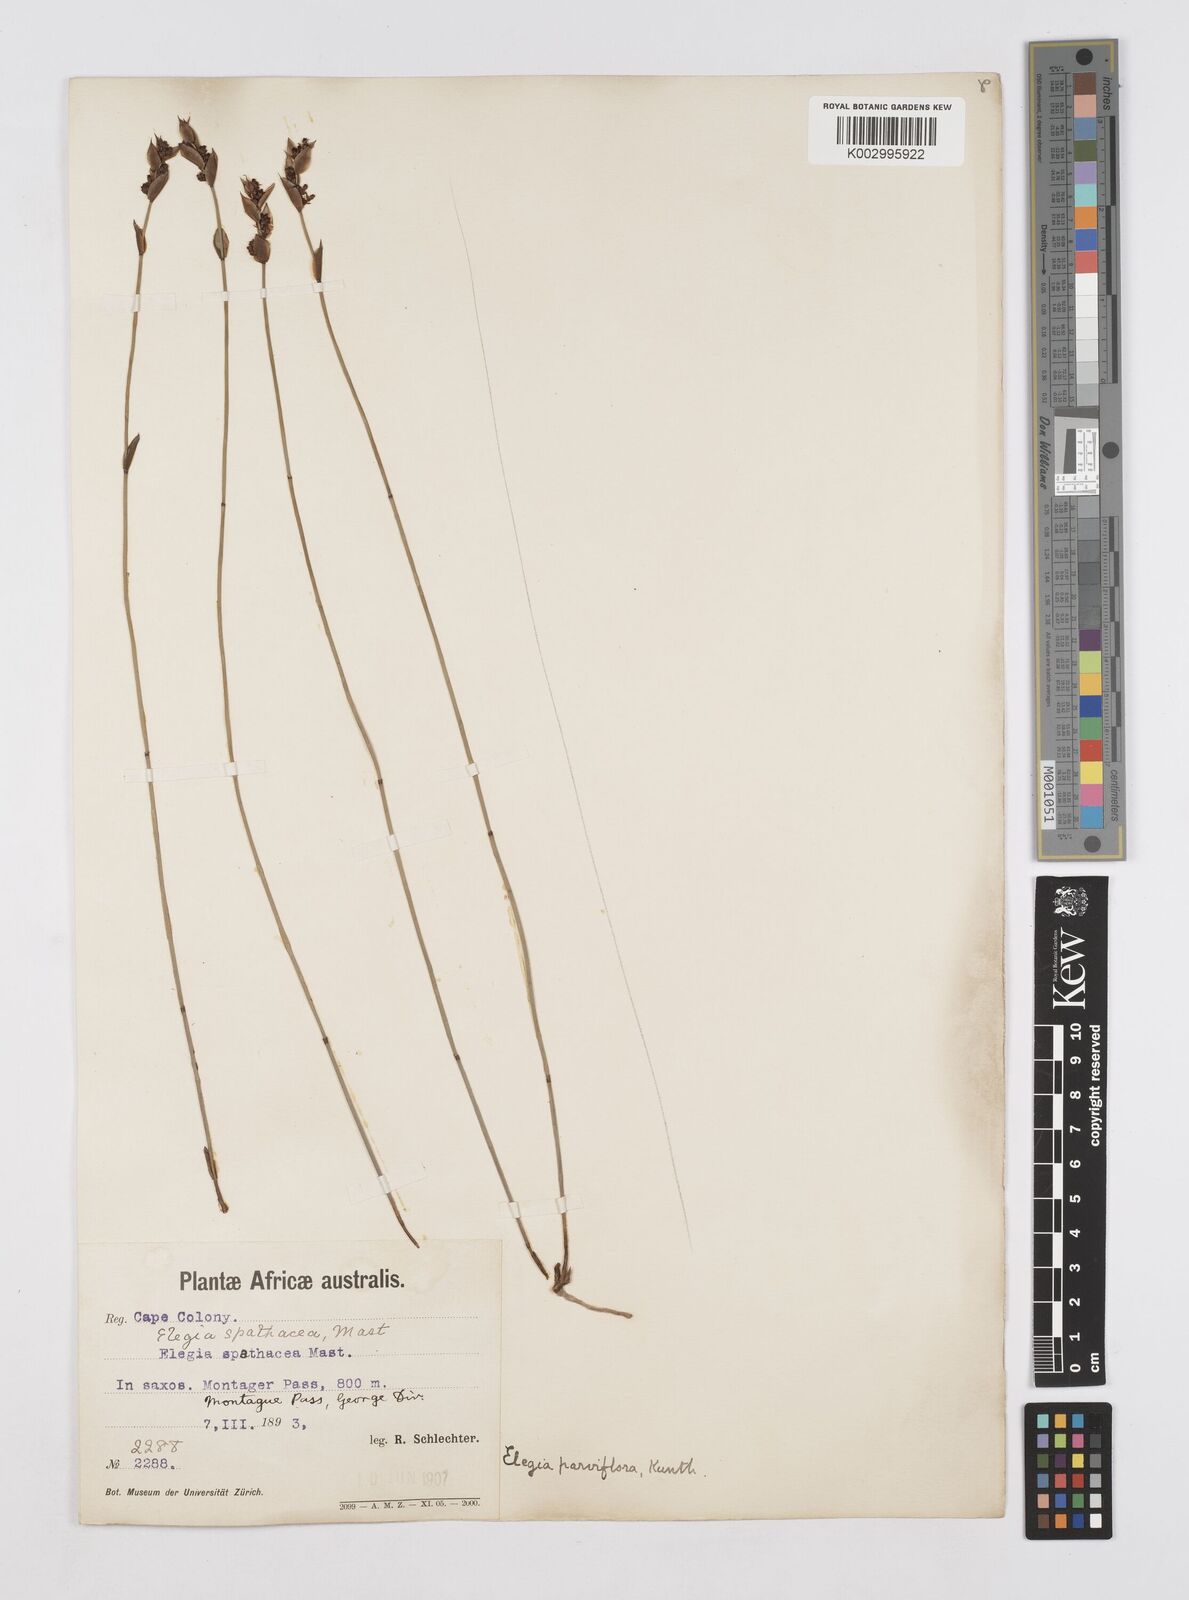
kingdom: Plantae
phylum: Tracheophyta
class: Liliopsida
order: Poales
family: Restionaceae
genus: Cannomois
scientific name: Cannomois parviflora
